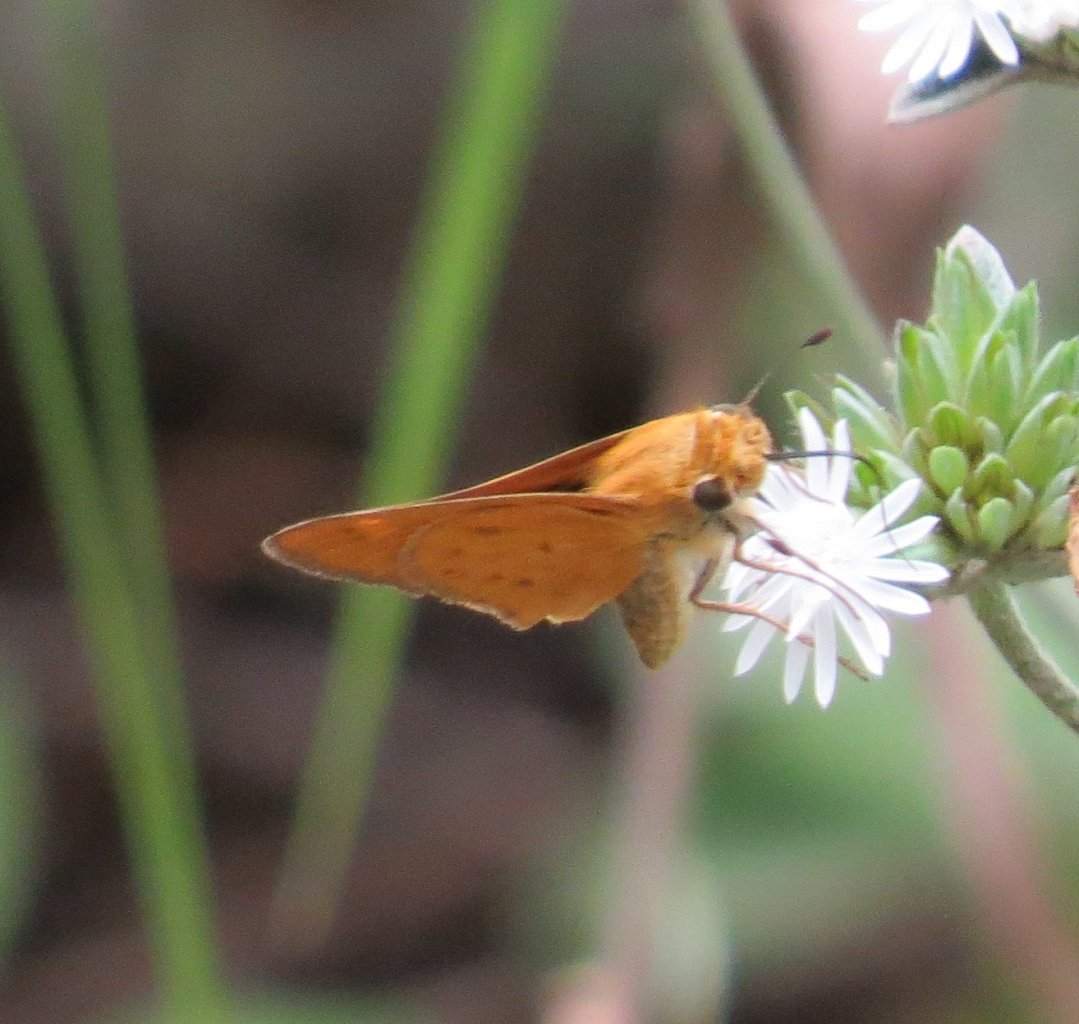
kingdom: Animalia
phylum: Arthropoda
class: Insecta
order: Lepidoptera
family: Hesperiidae
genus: Hylephila
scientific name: Hylephila phyleus
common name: Fiery Skipper
